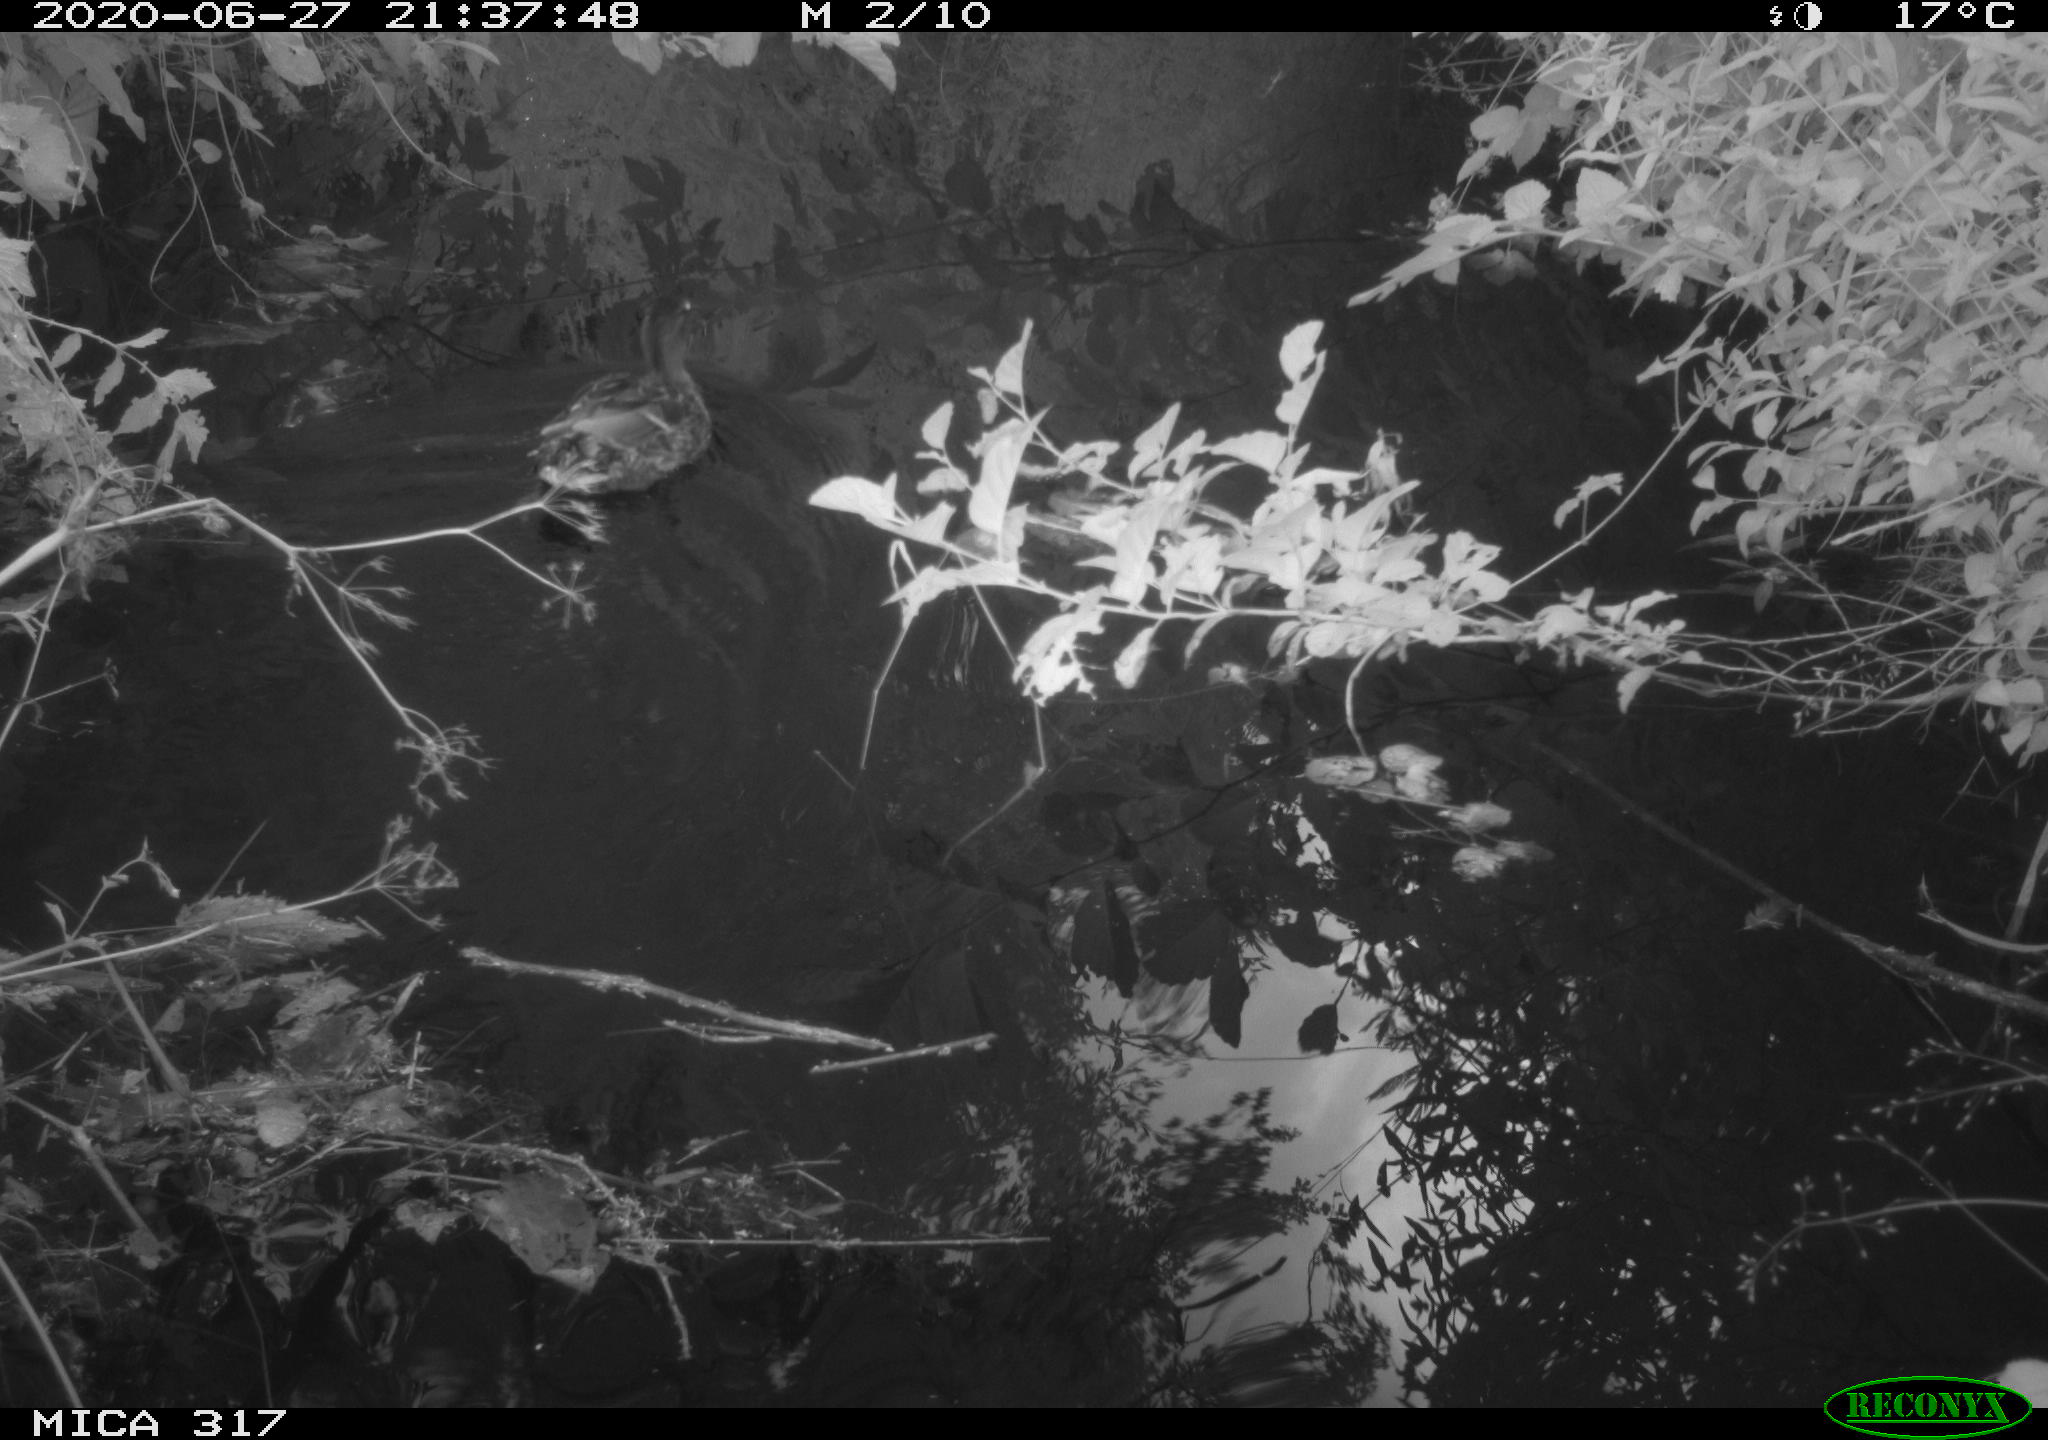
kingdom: Animalia
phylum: Chordata
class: Aves
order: Anseriformes
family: Anatidae
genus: Anas
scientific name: Anas platyrhynchos
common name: Mallard
